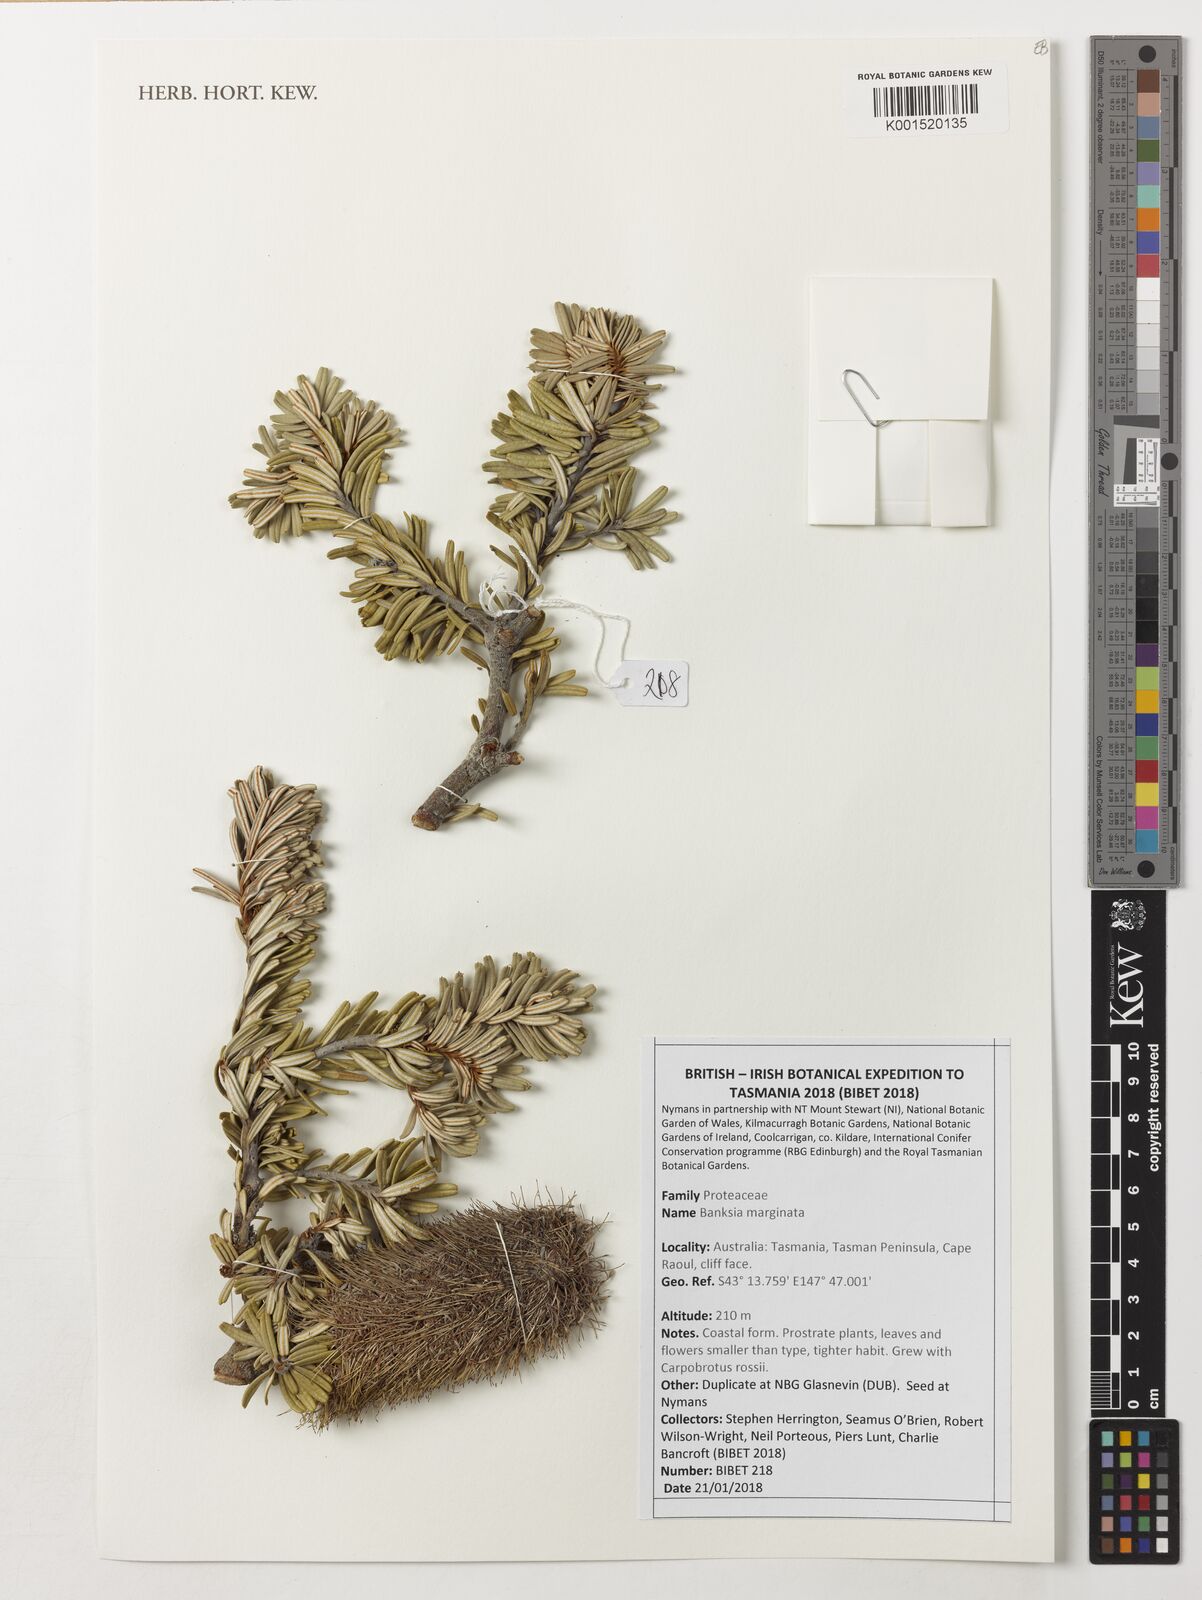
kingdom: Plantae
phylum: Tracheophyta
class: Magnoliopsida
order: Proteales
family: Proteaceae
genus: Banksia
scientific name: Banksia marginata
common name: Silver banksia
